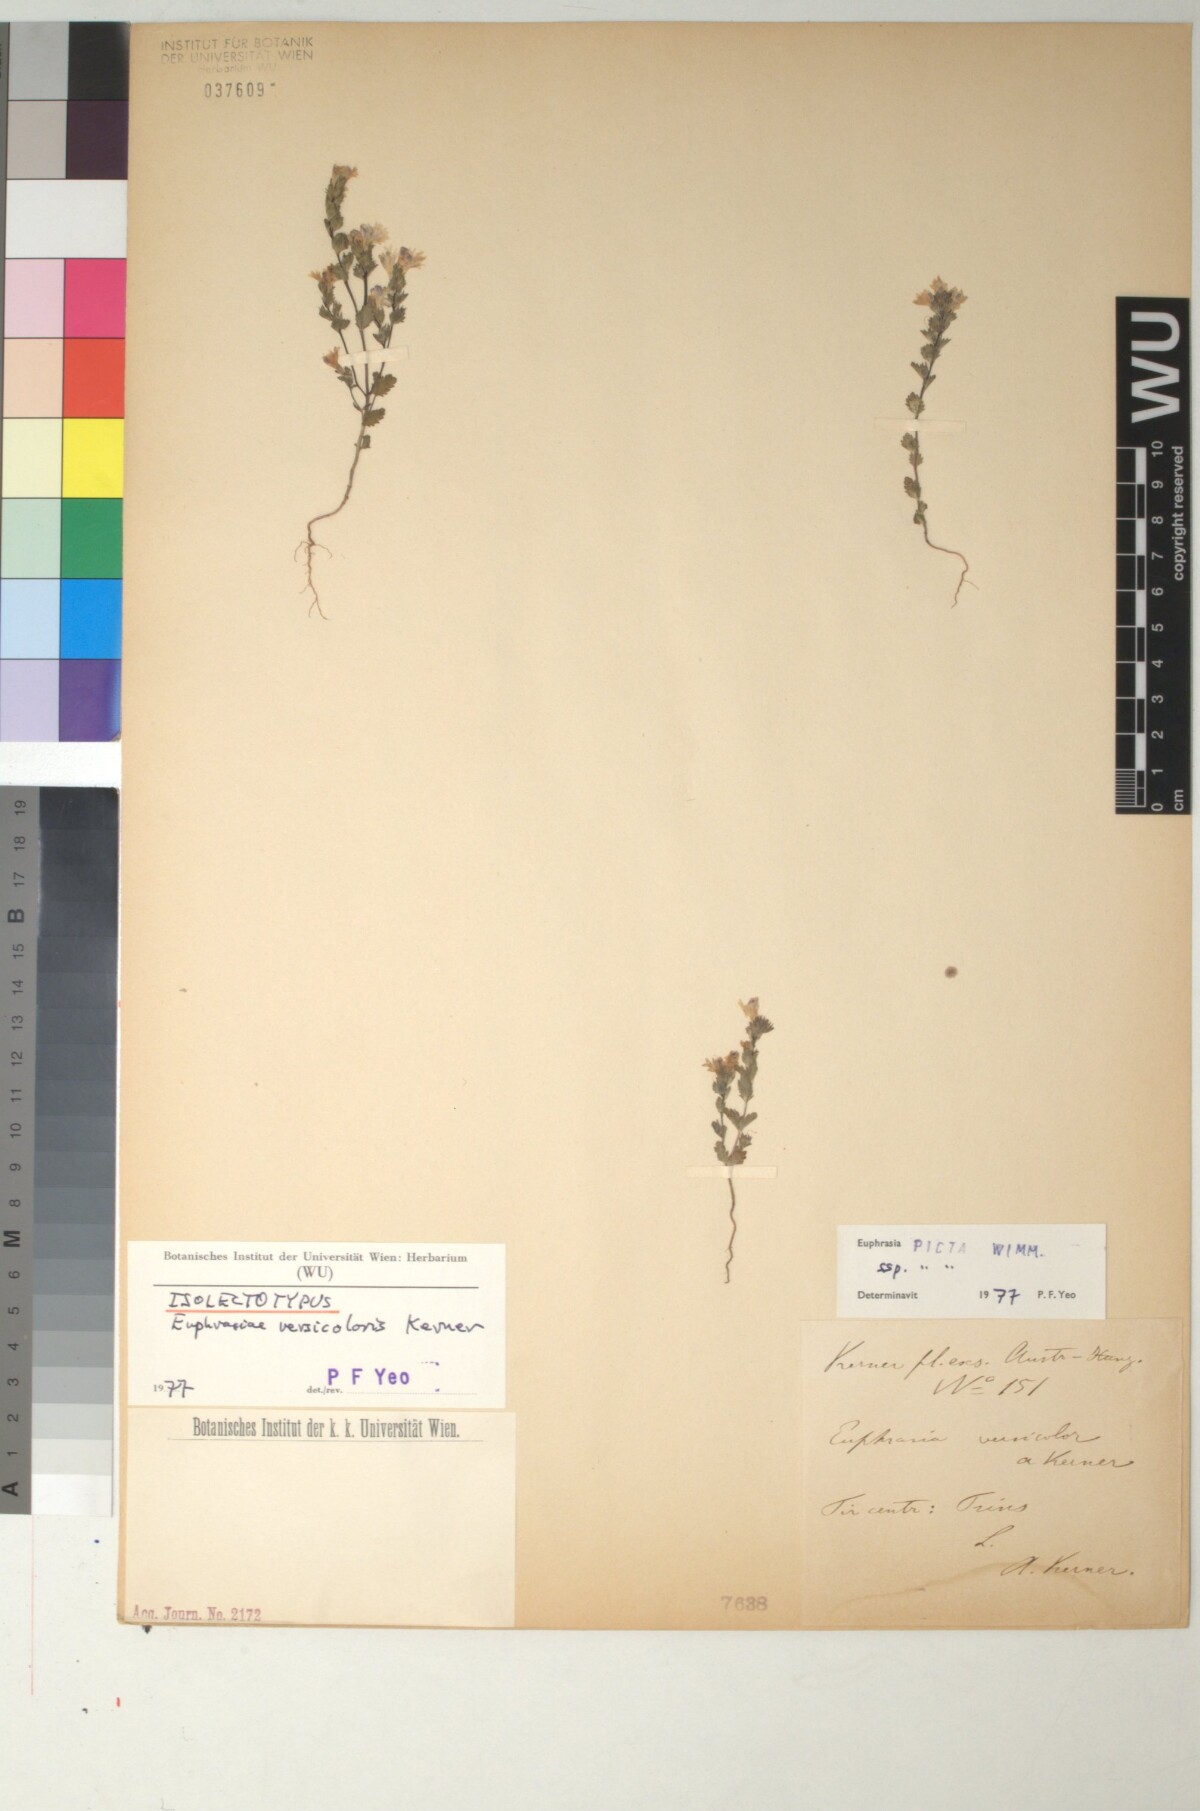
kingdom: Plantae
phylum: Tracheophyta
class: Magnoliopsida
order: Lamiales
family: Orobanchaceae
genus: Euphrasia
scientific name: Euphrasia picta
